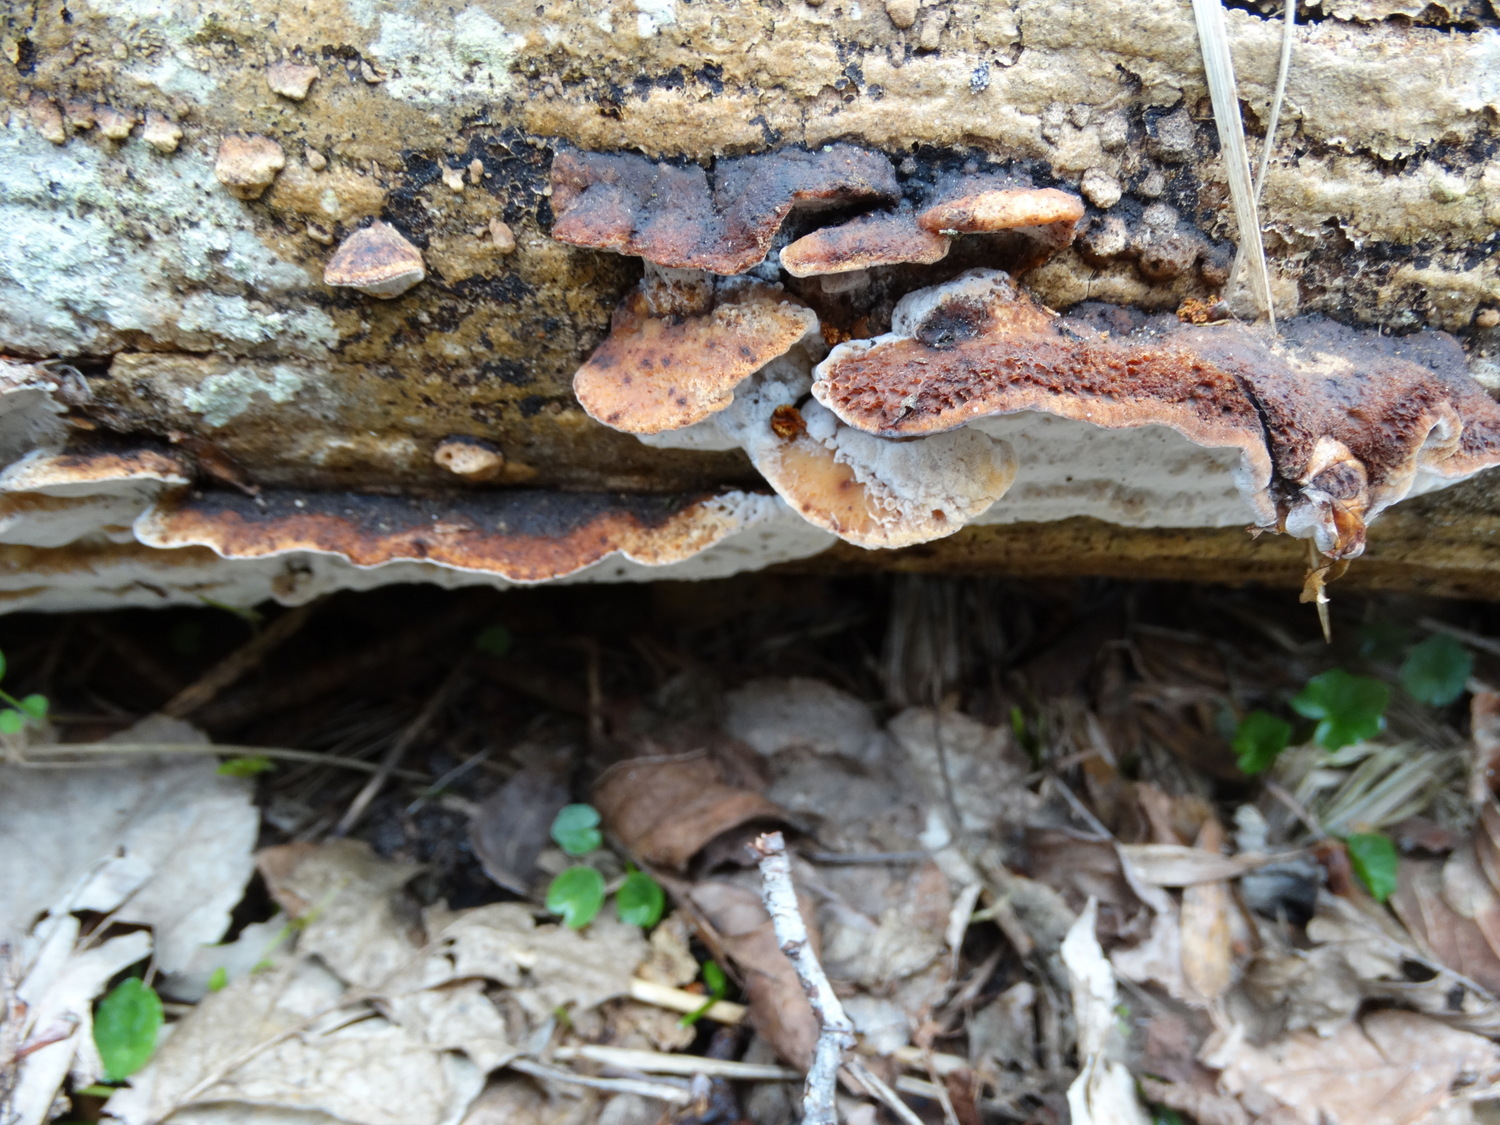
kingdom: Fungi
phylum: Basidiomycota
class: Agaricomycetes
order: Polyporales
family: Incrustoporiaceae
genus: Skeletocutis
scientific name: Skeletocutis nemoralis
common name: stor krystalporesvamp
